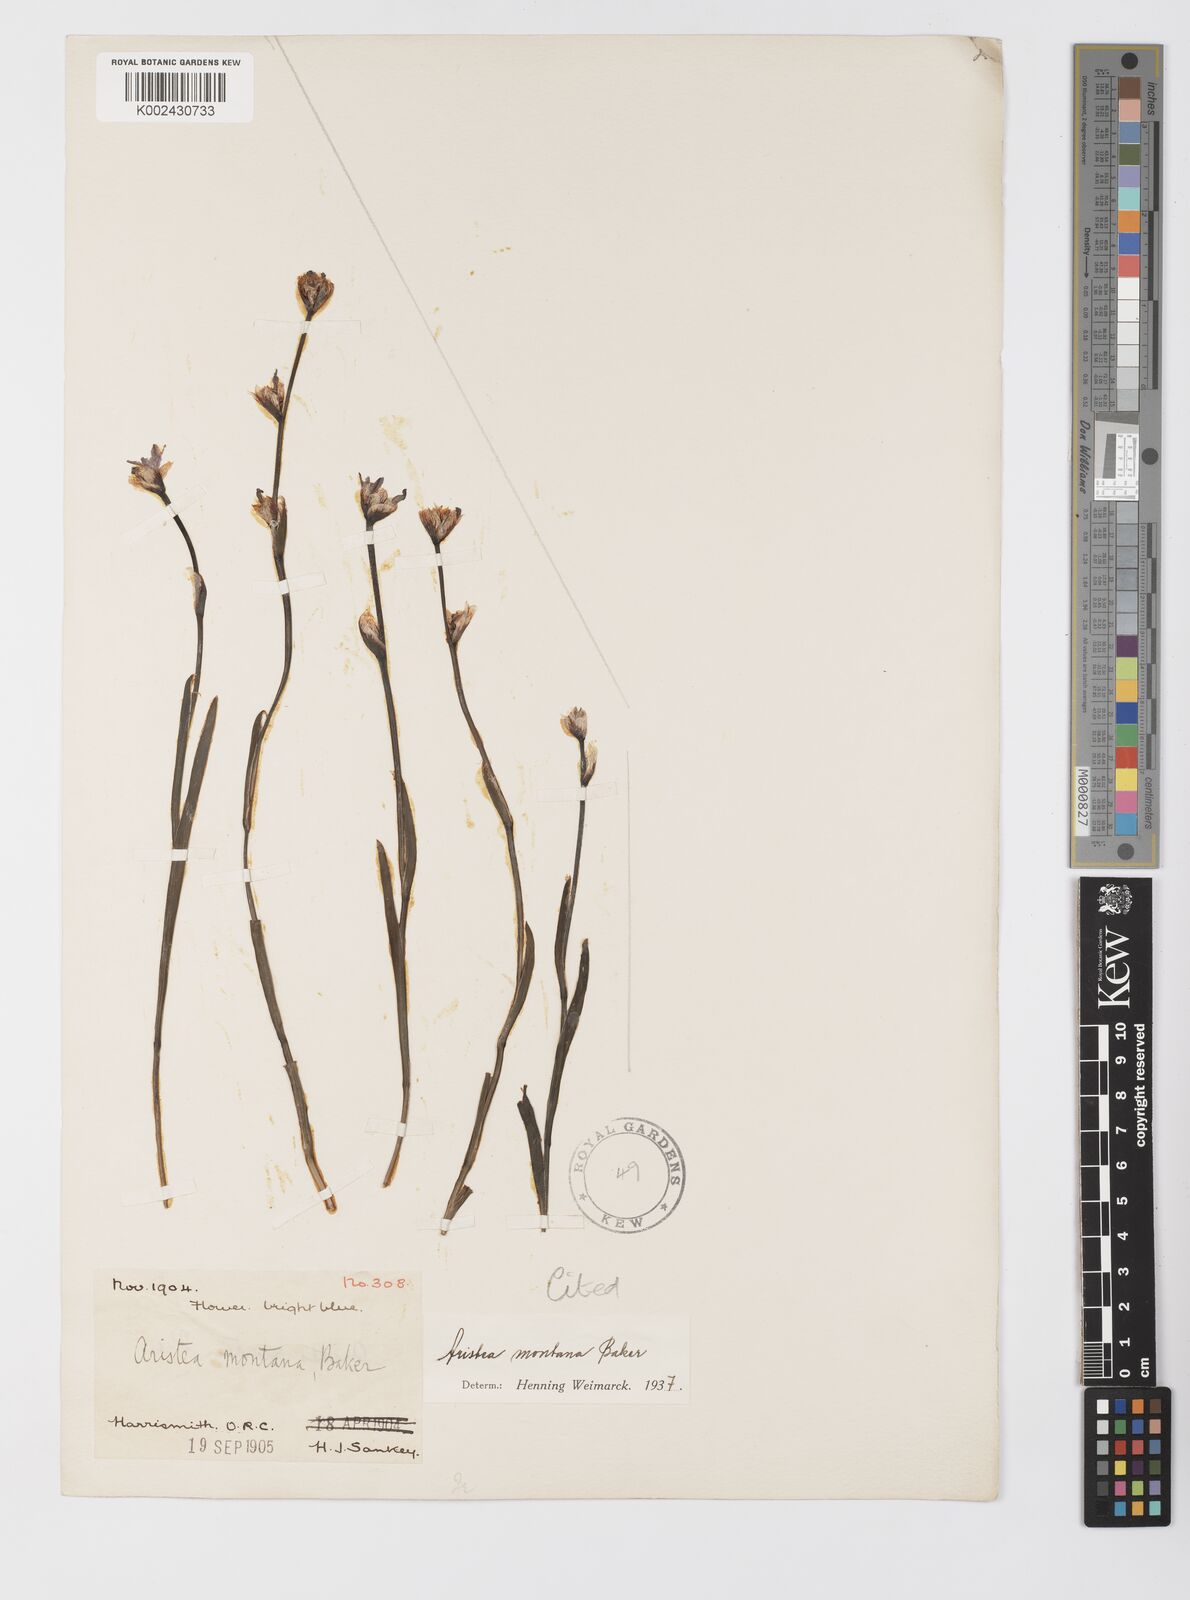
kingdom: Plantae
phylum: Tracheophyta
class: Liliopsida
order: Asparagales
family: Iridaceae
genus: Aristea
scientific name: Aristea montana
